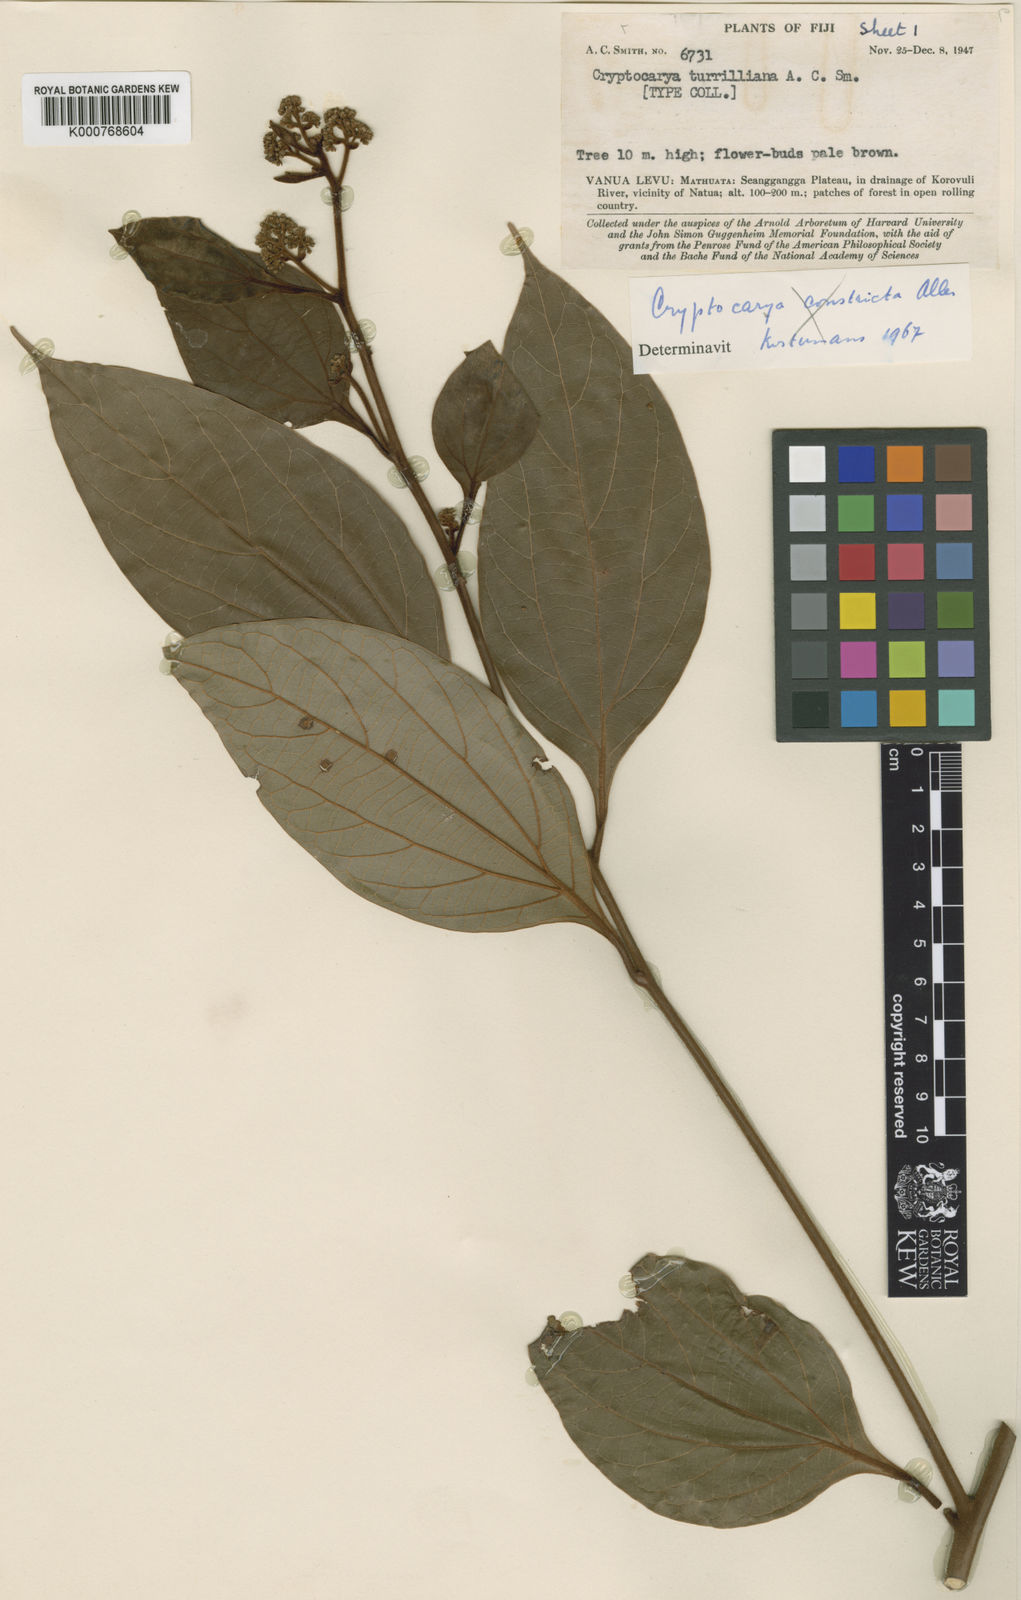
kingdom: Plantae
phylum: Tracheophyta
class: Magnoliopsida
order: Laurales
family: Lauraceae
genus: Cryptocarya
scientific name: Cryptocarya turrilliana
